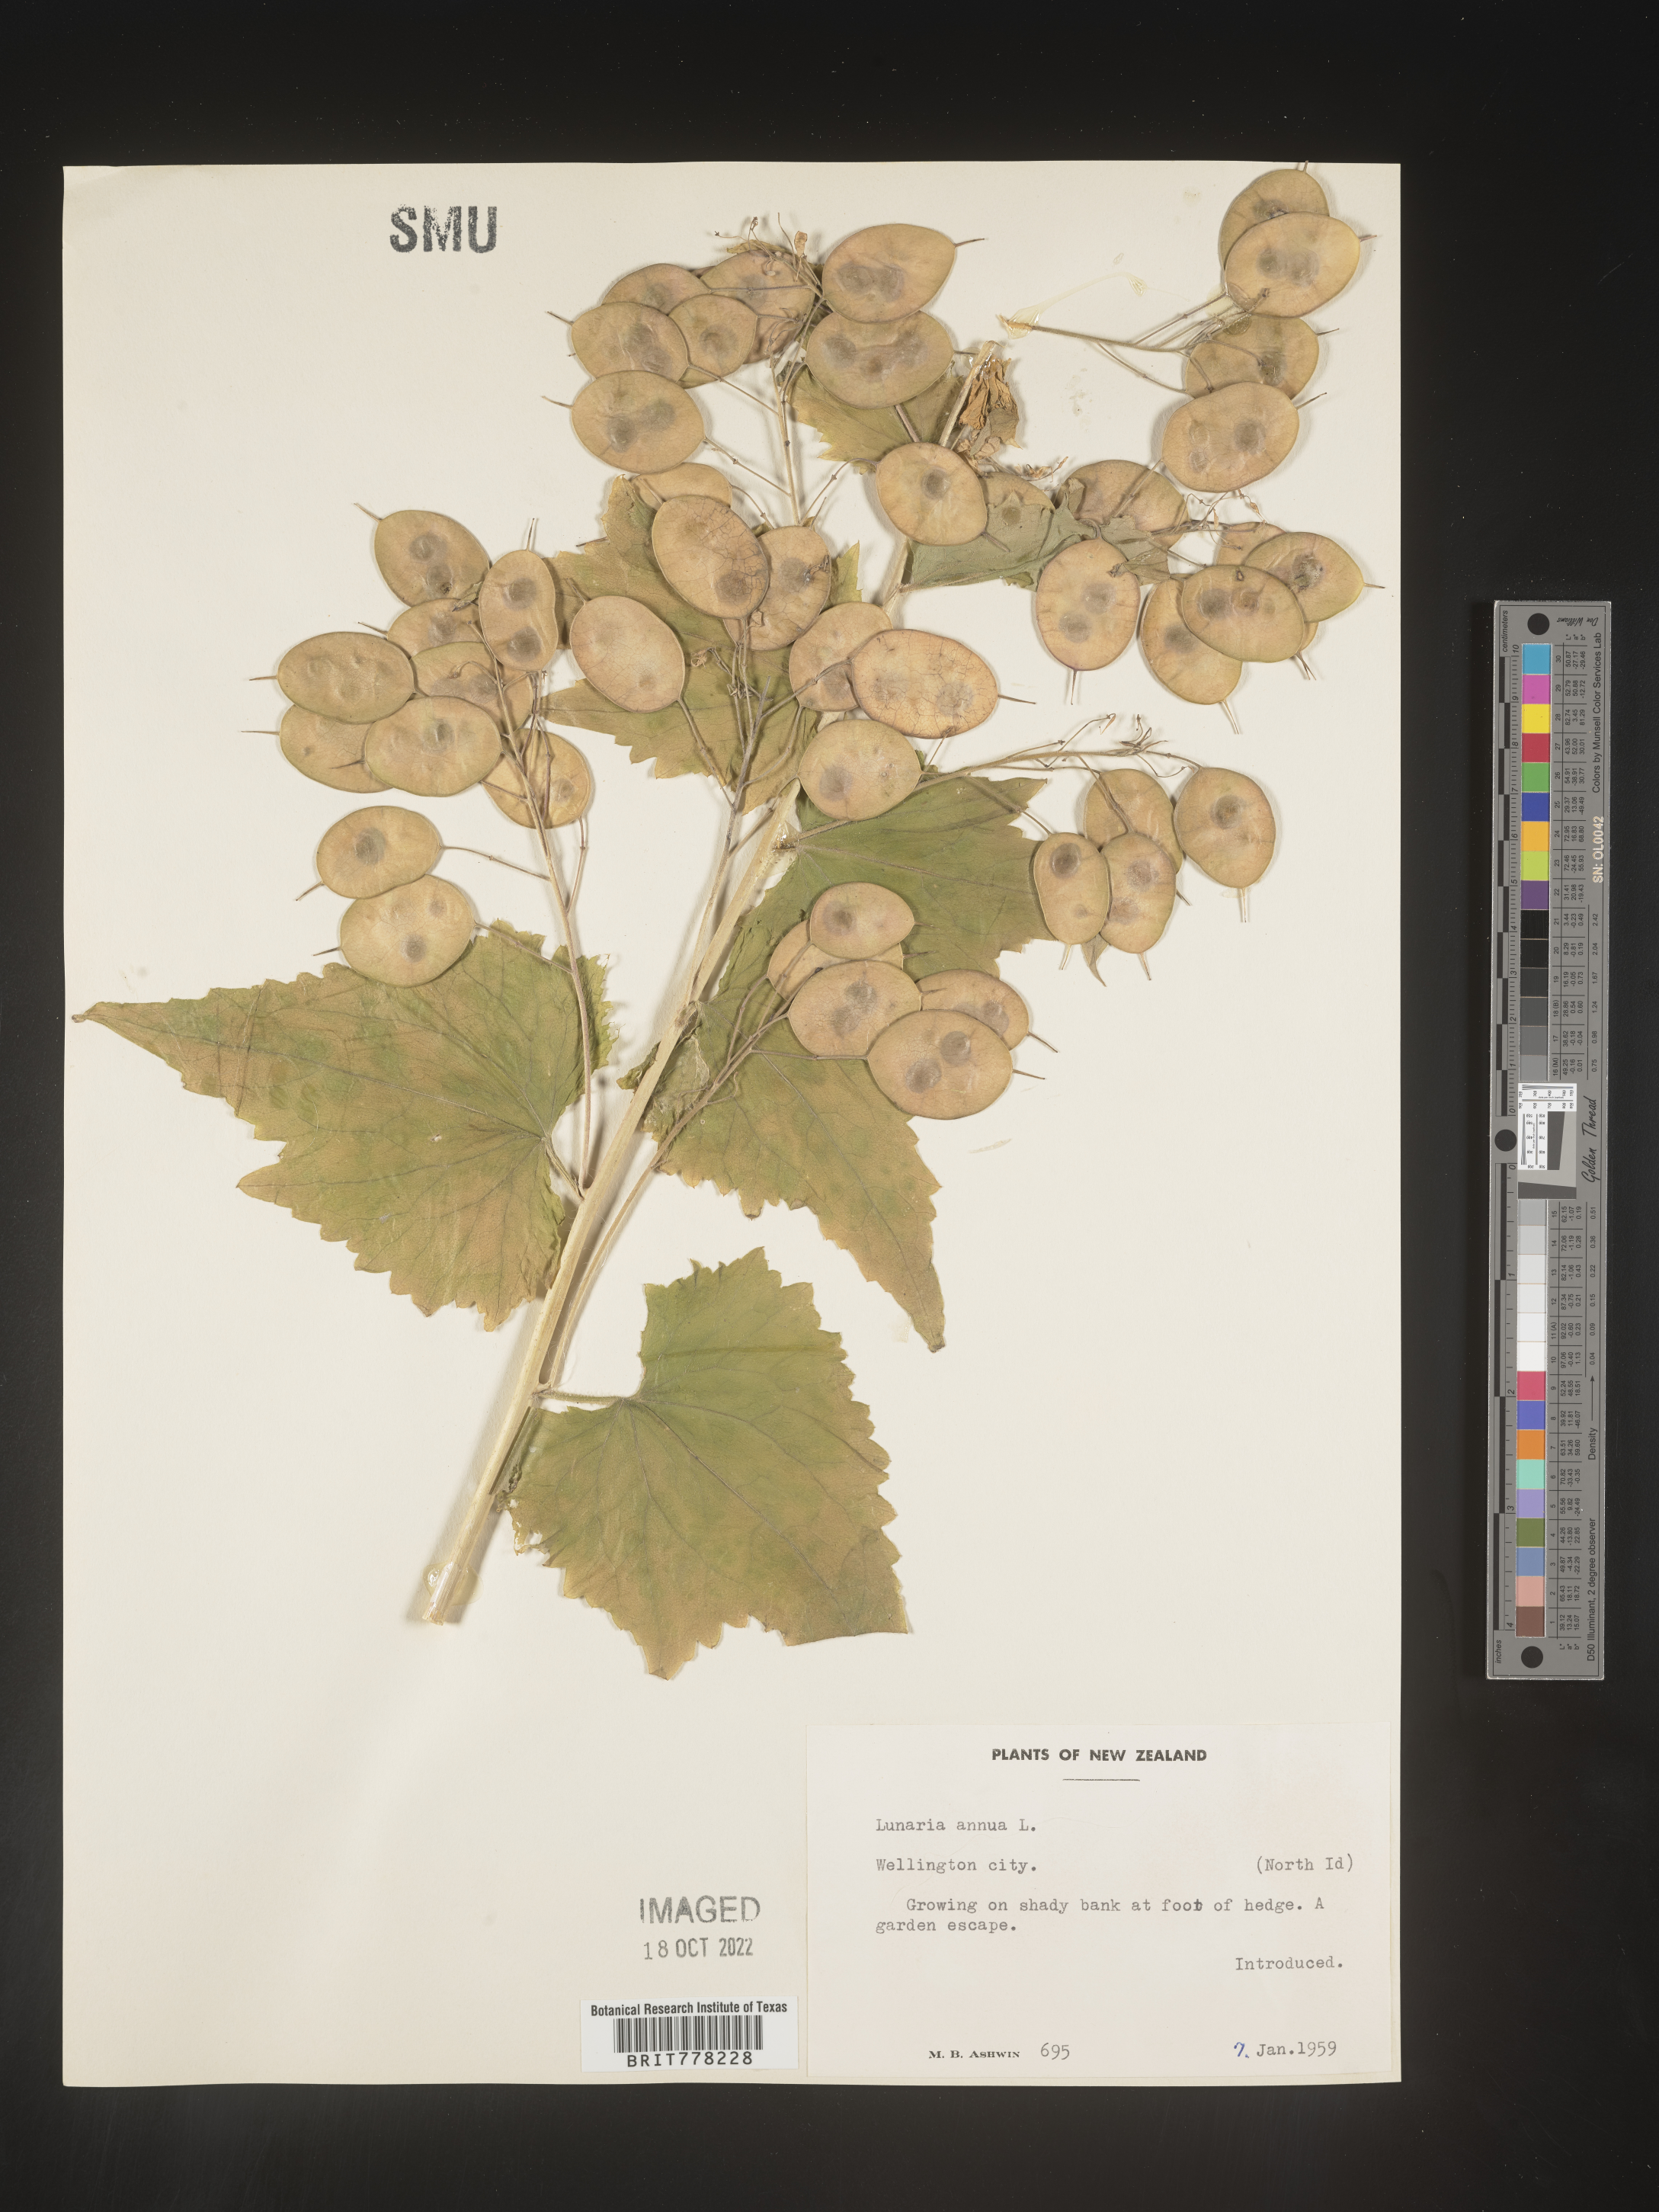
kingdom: Plantae
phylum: Tracheophyta
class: Magnoliopsida
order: Brassicales
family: Brassicaceae
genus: Lunaria
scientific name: Lunaria
